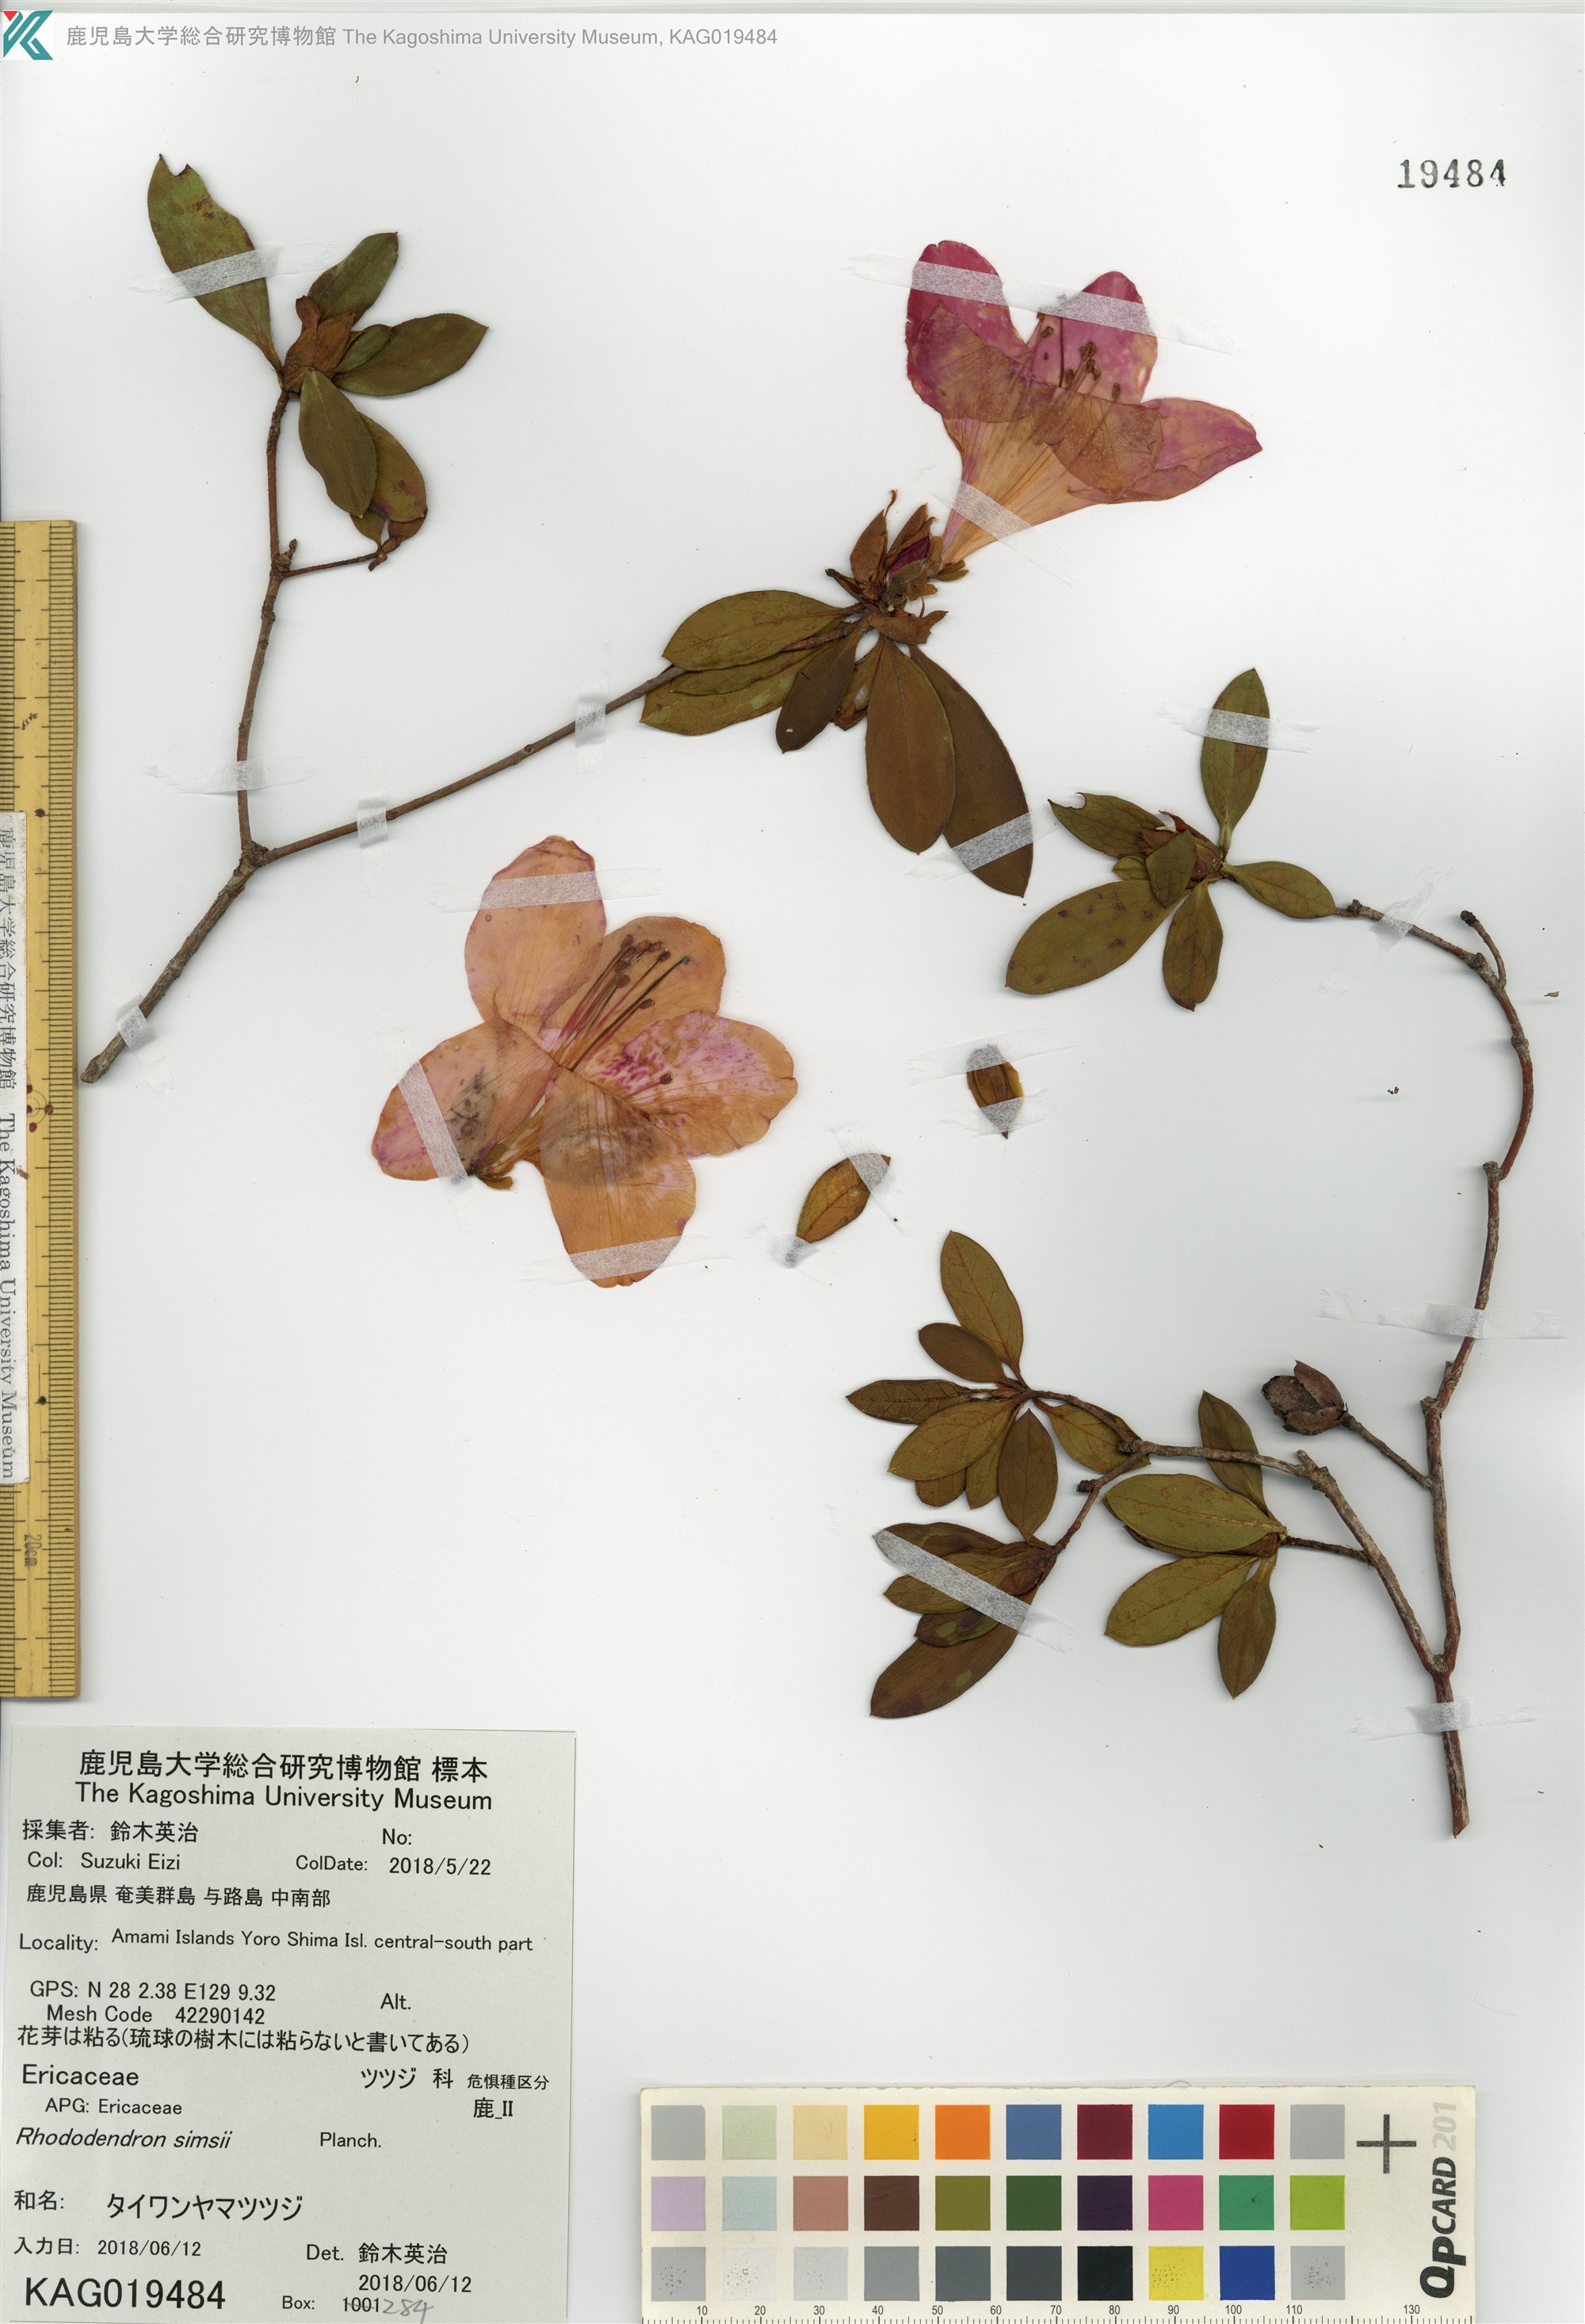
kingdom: Plantae
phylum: Tracheophyta
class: Magnoliopsida
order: Ericales
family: Ericaceae
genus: Rhododendron
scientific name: Rhododendron simsii
